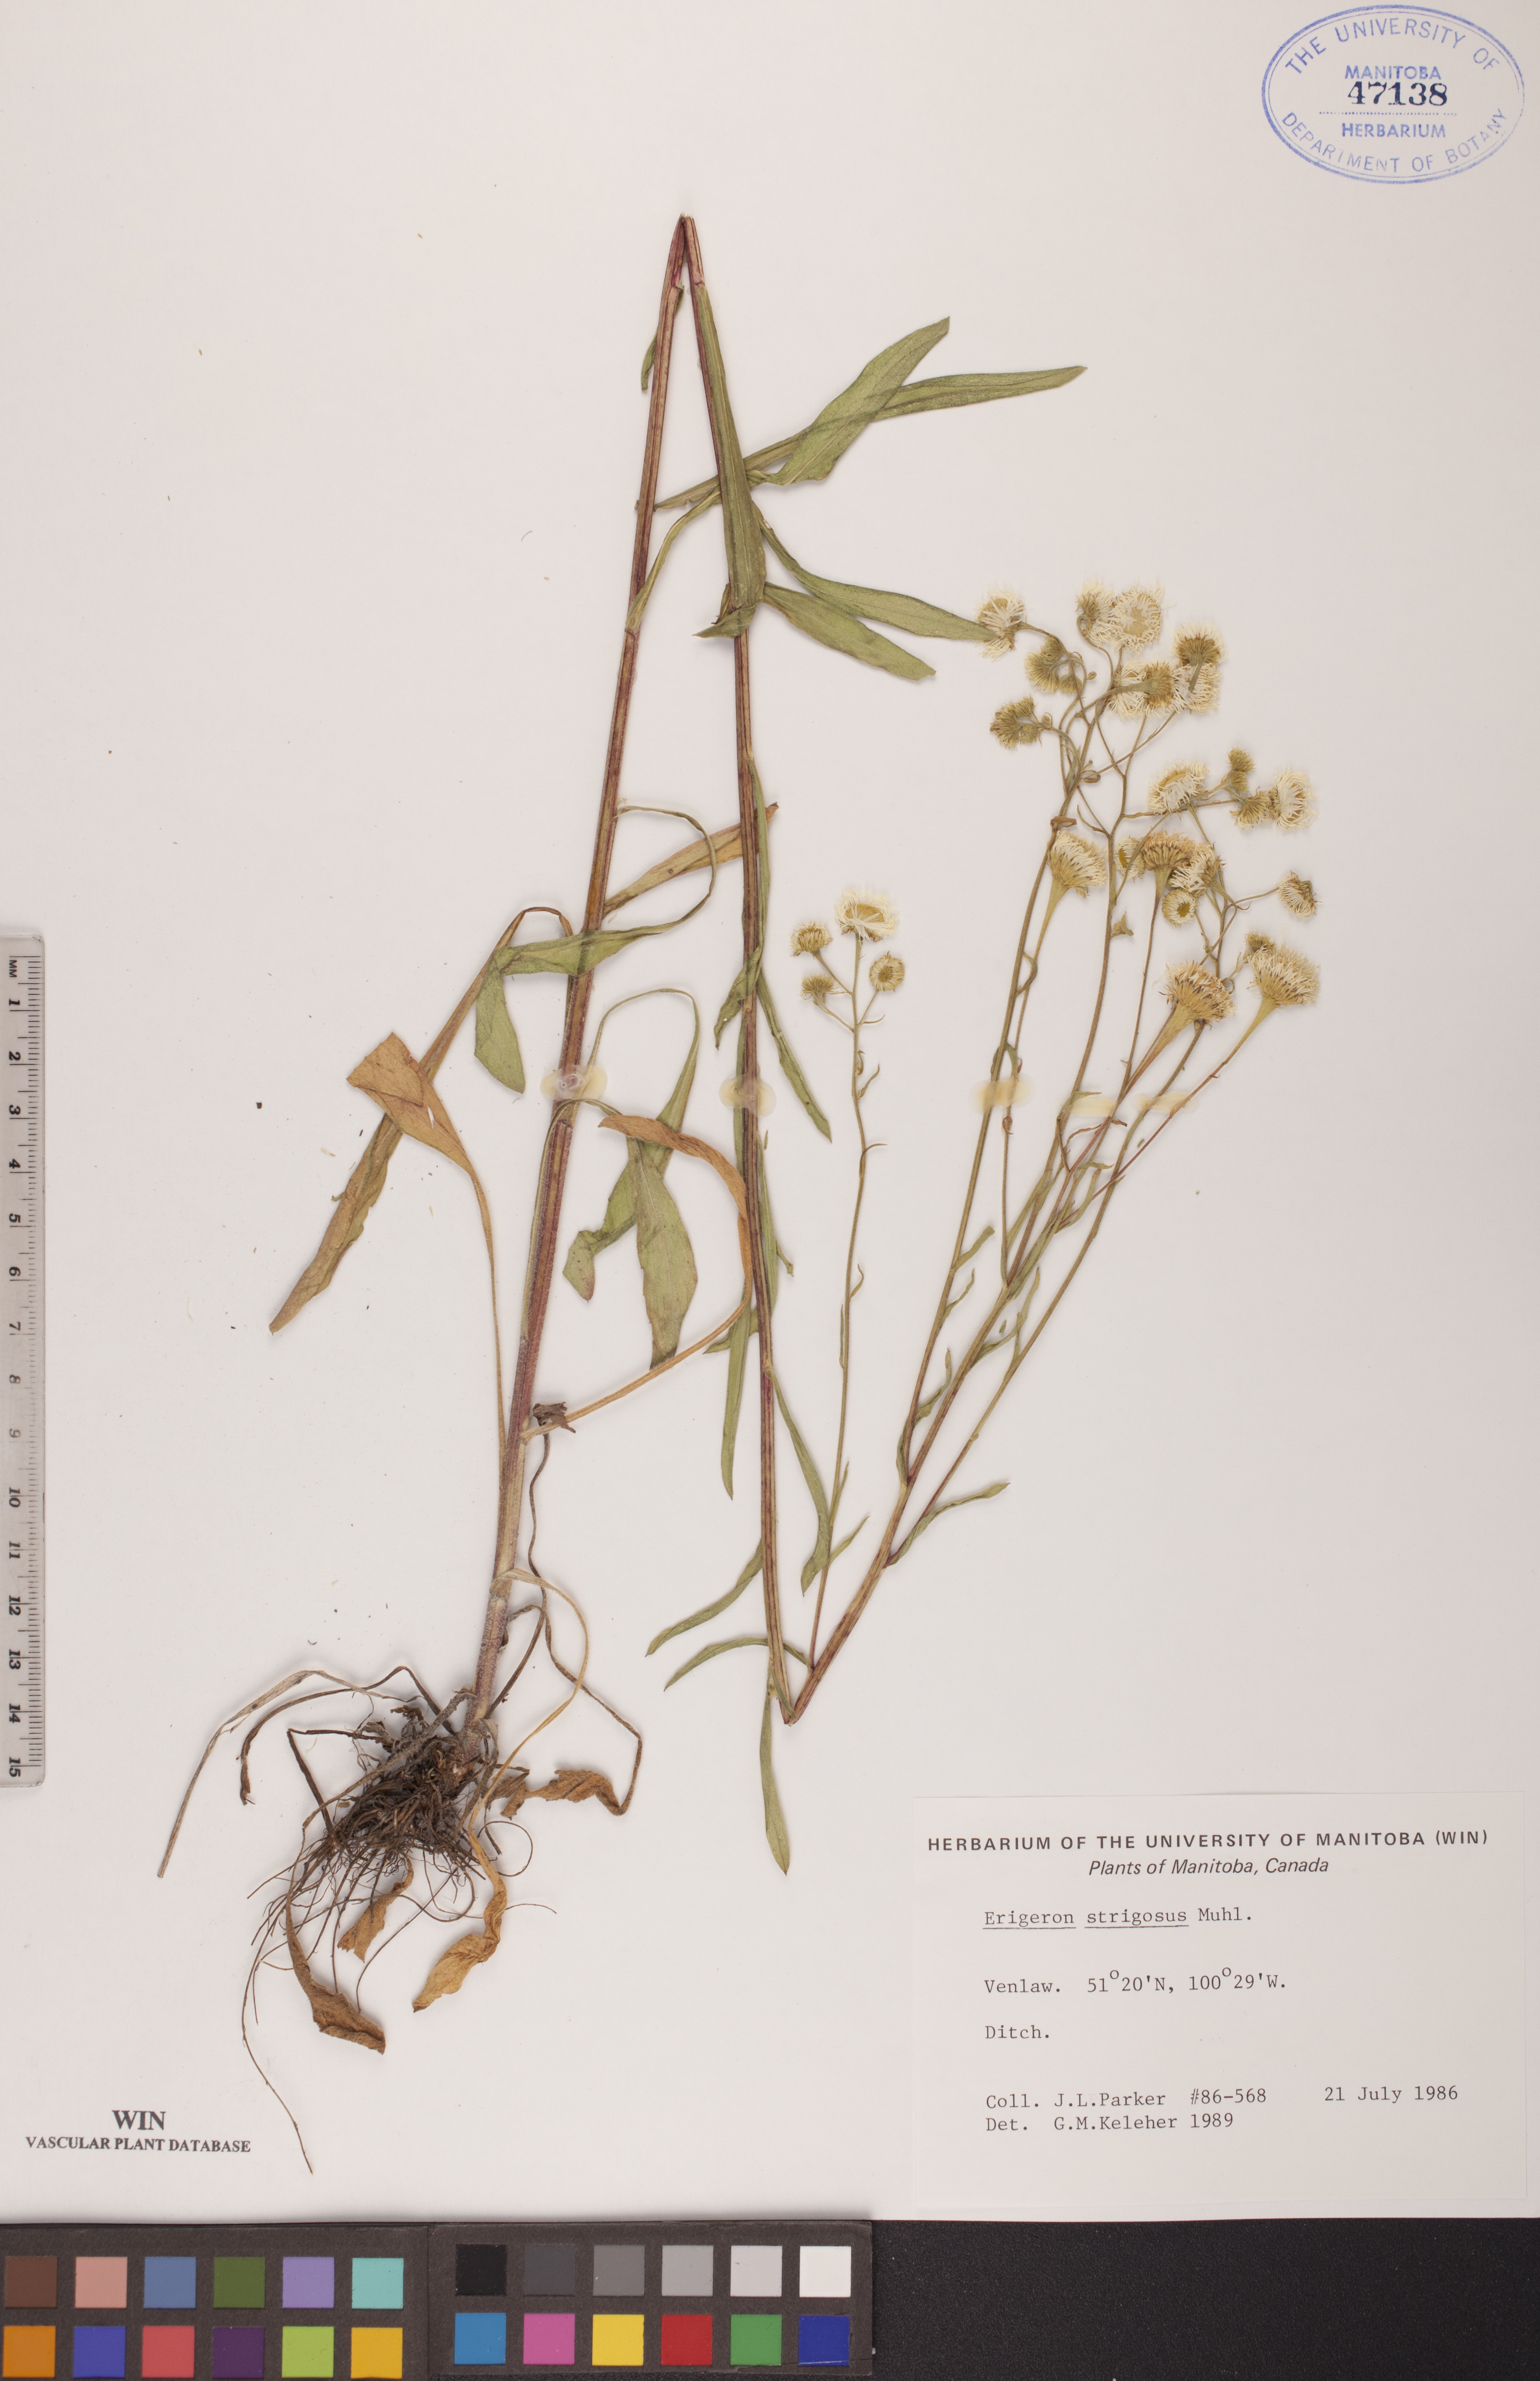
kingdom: Plantae
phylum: Tracheophyta
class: Magnoliopsida
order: Asterales
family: Asteraceae
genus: Erigeron
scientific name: Erigeron strigosus
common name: Common eastern fleabane
